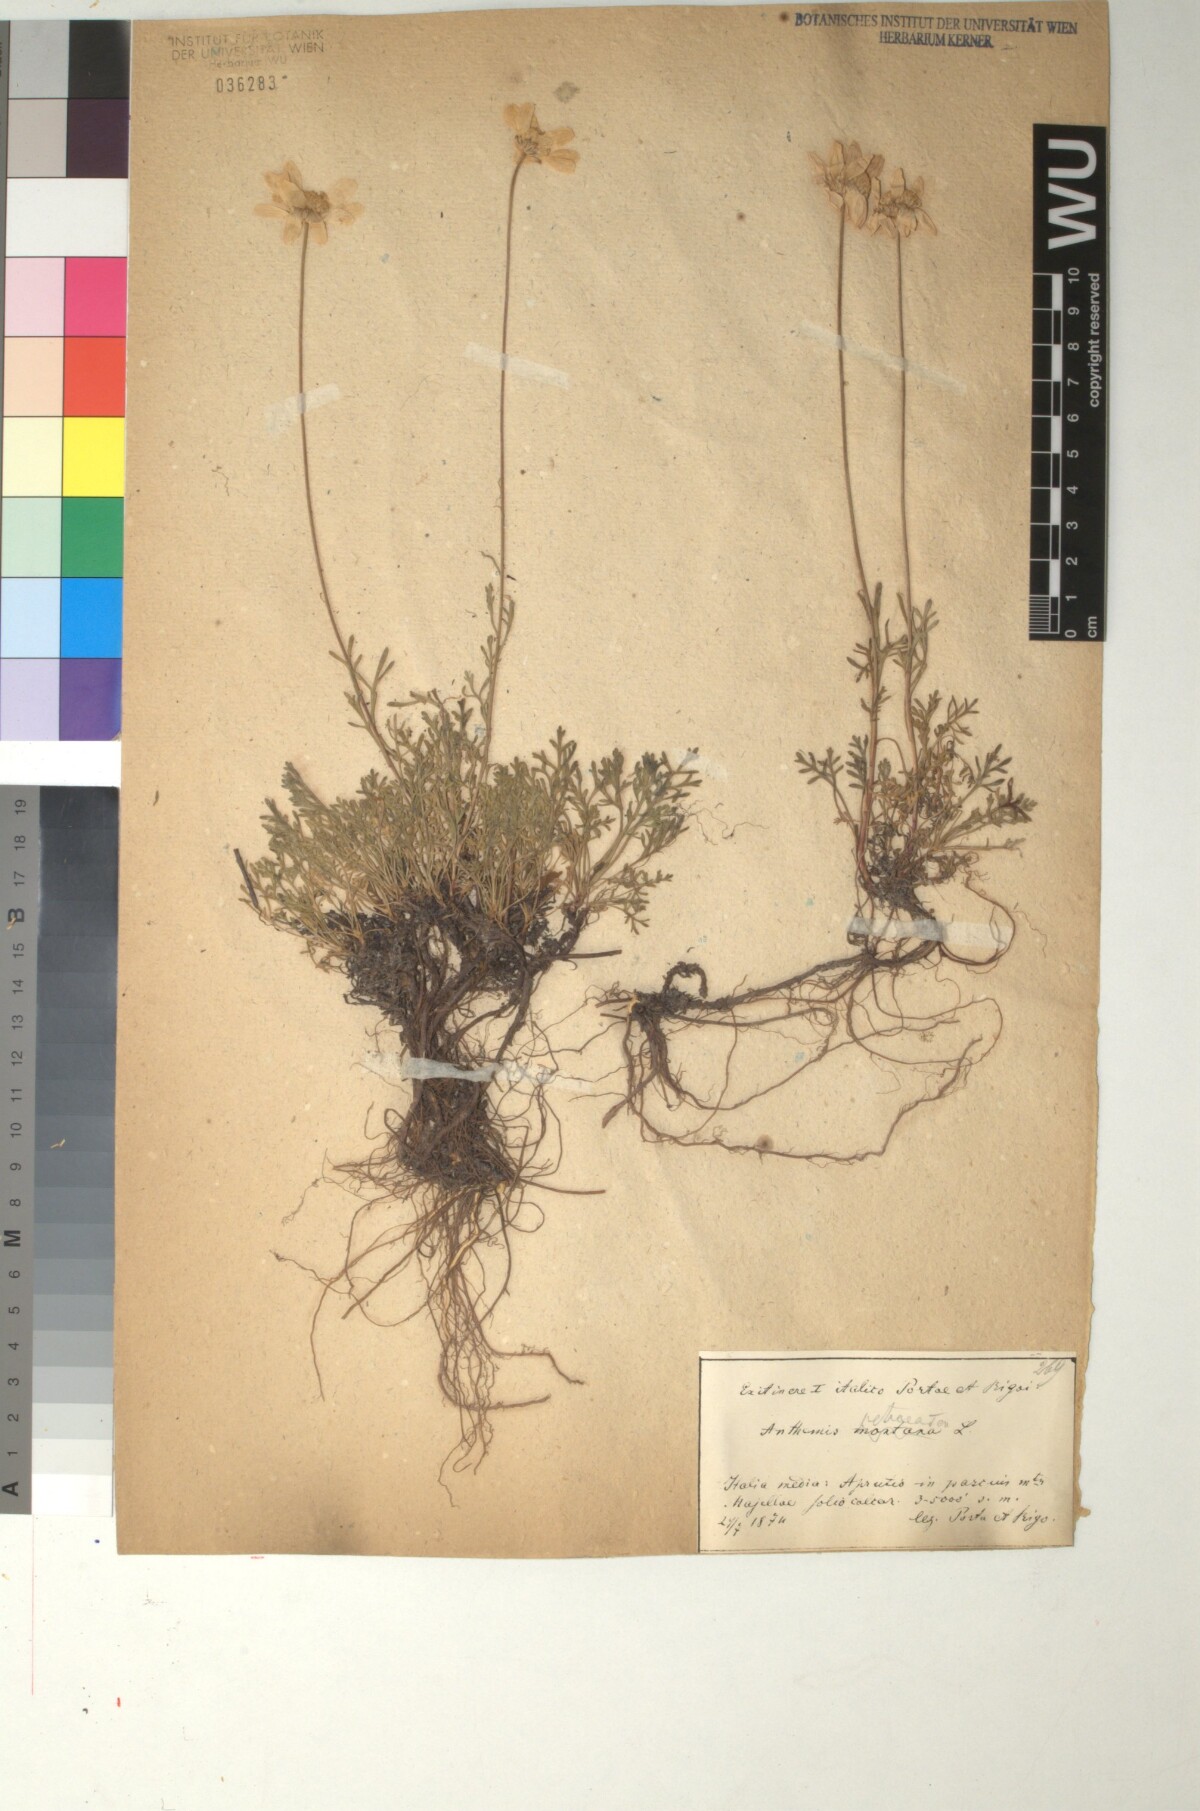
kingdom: Plantae
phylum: Tracheophyta
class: Magnoliopsida
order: Asterales
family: Asteraceae
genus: Anthemis
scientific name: Anthemis cretica
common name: Mountain dog-daisy
